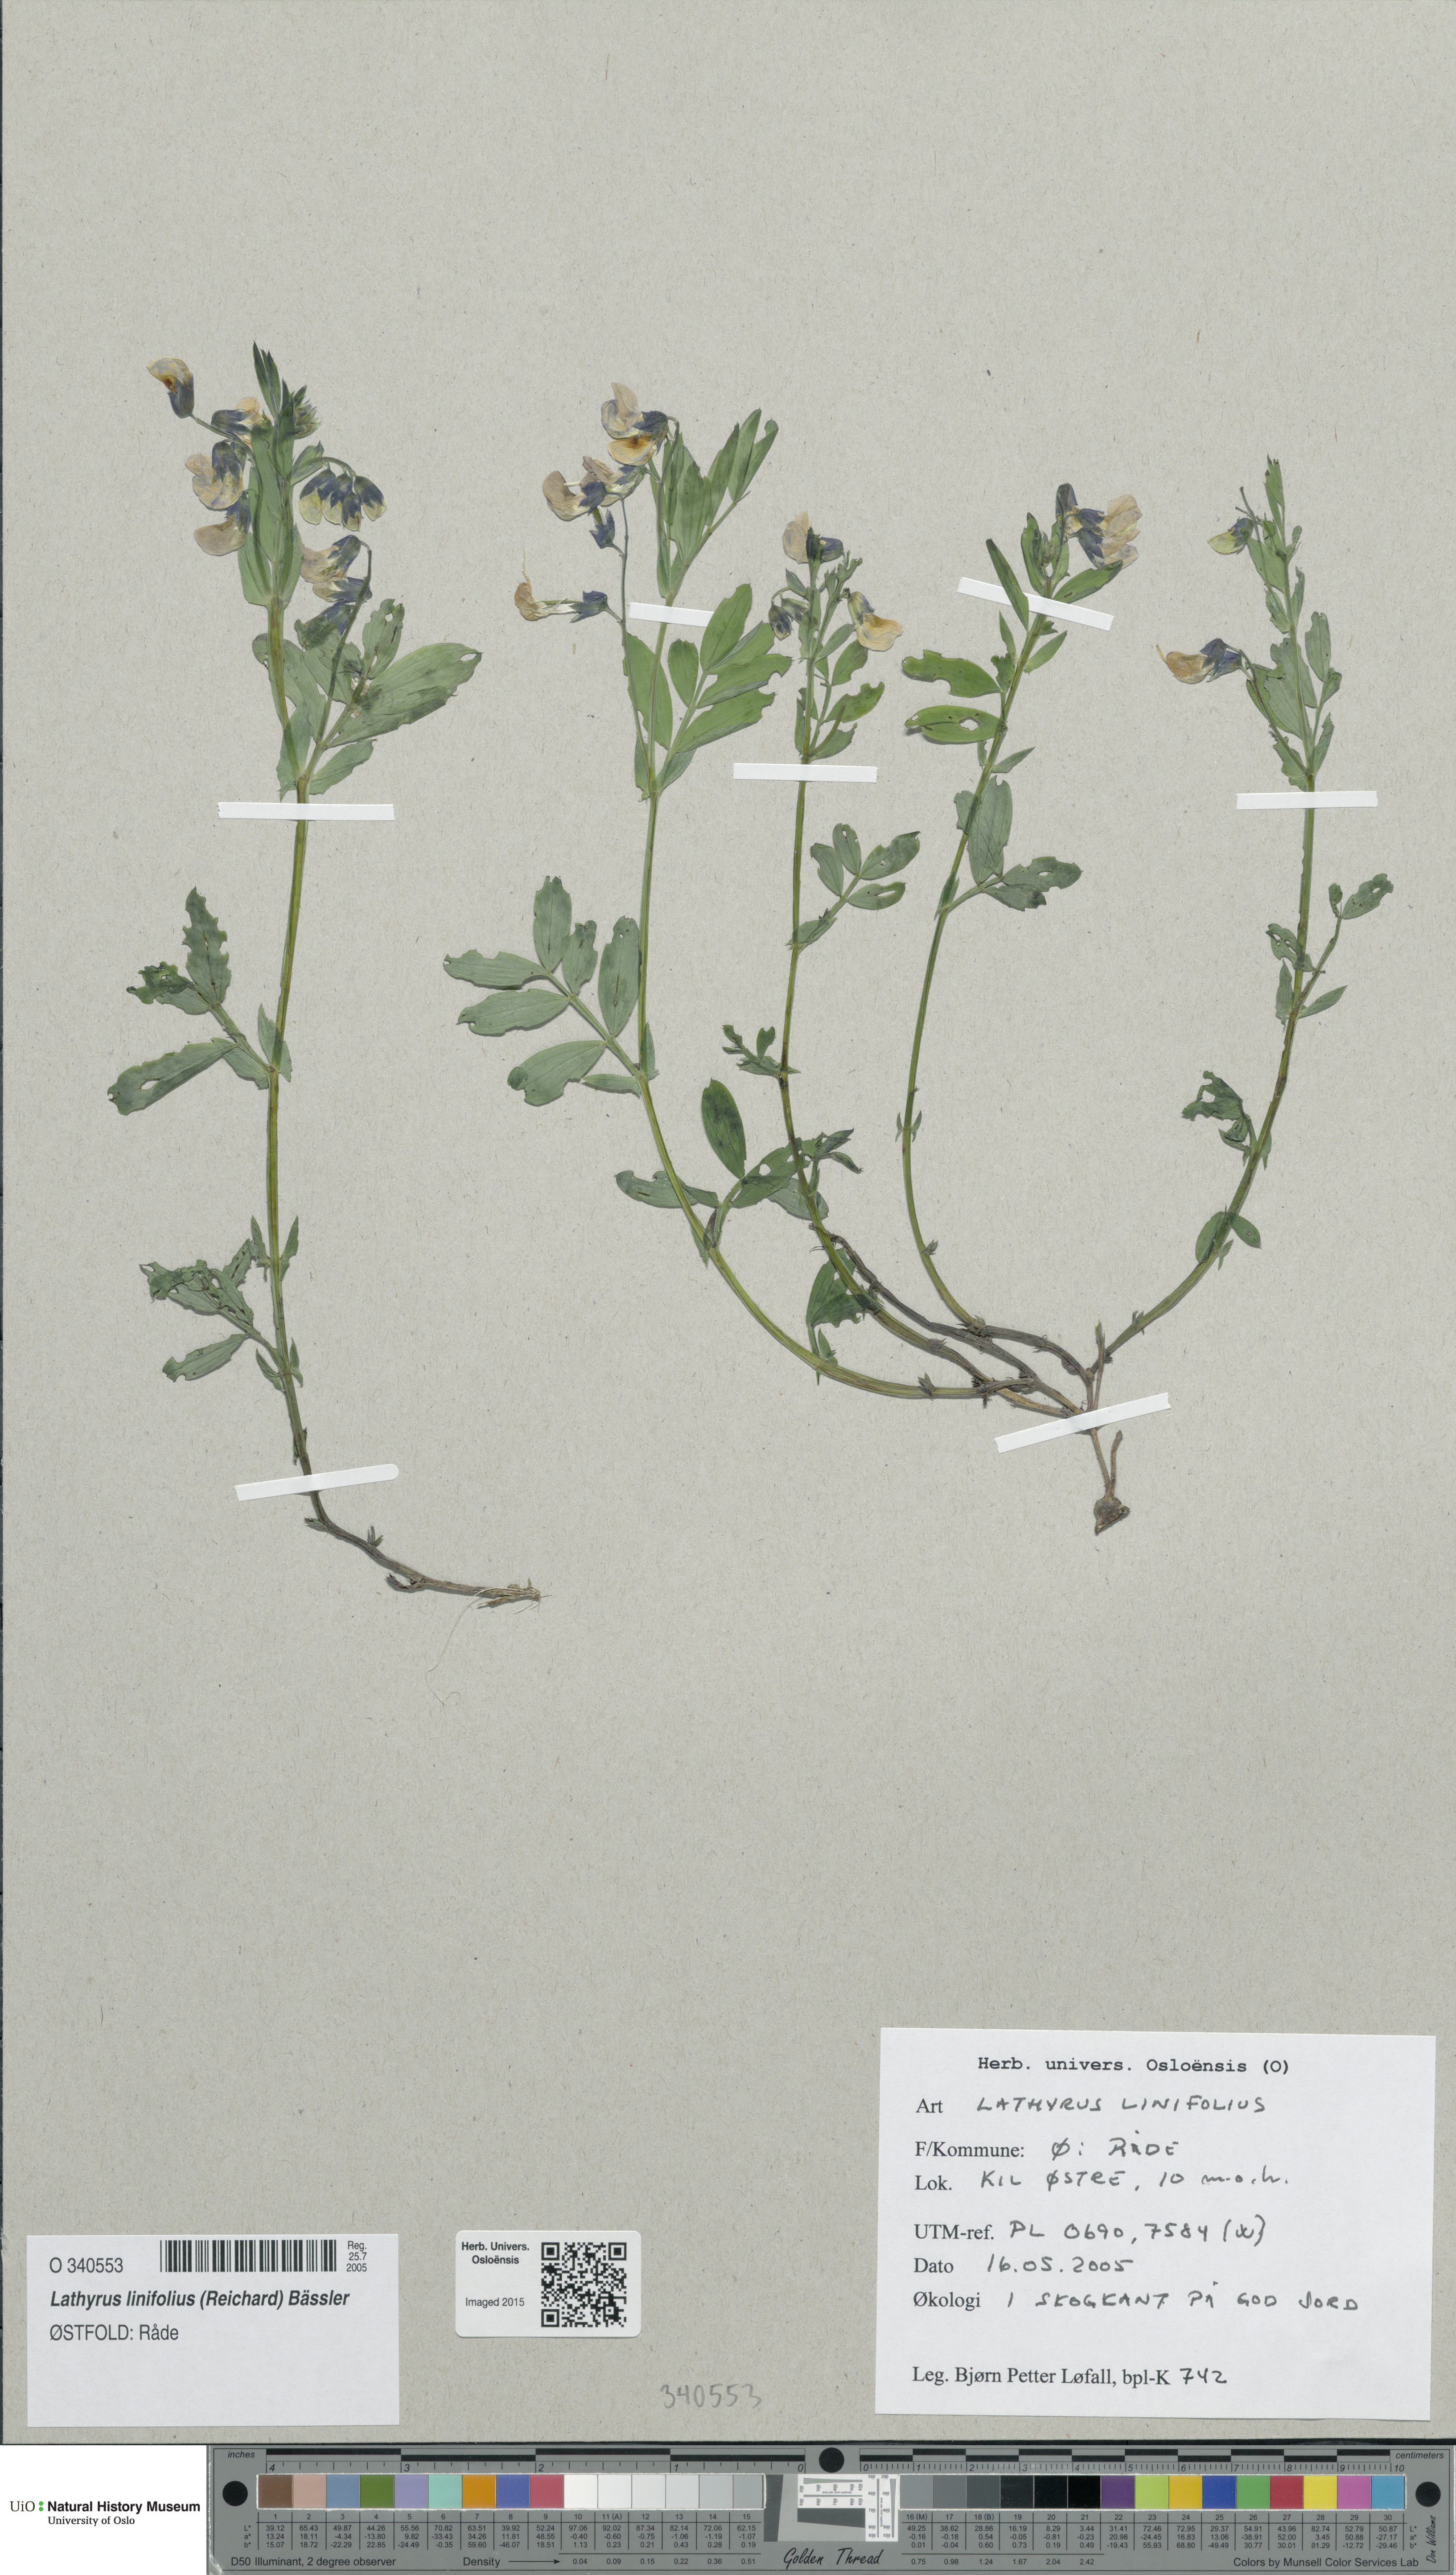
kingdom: Plantae
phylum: Tracheophyta
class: Magnoliopsida
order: Fabales
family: Fabaceae
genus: Lathyrus
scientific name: Lathyrus linifolius
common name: Bitter-vetch
